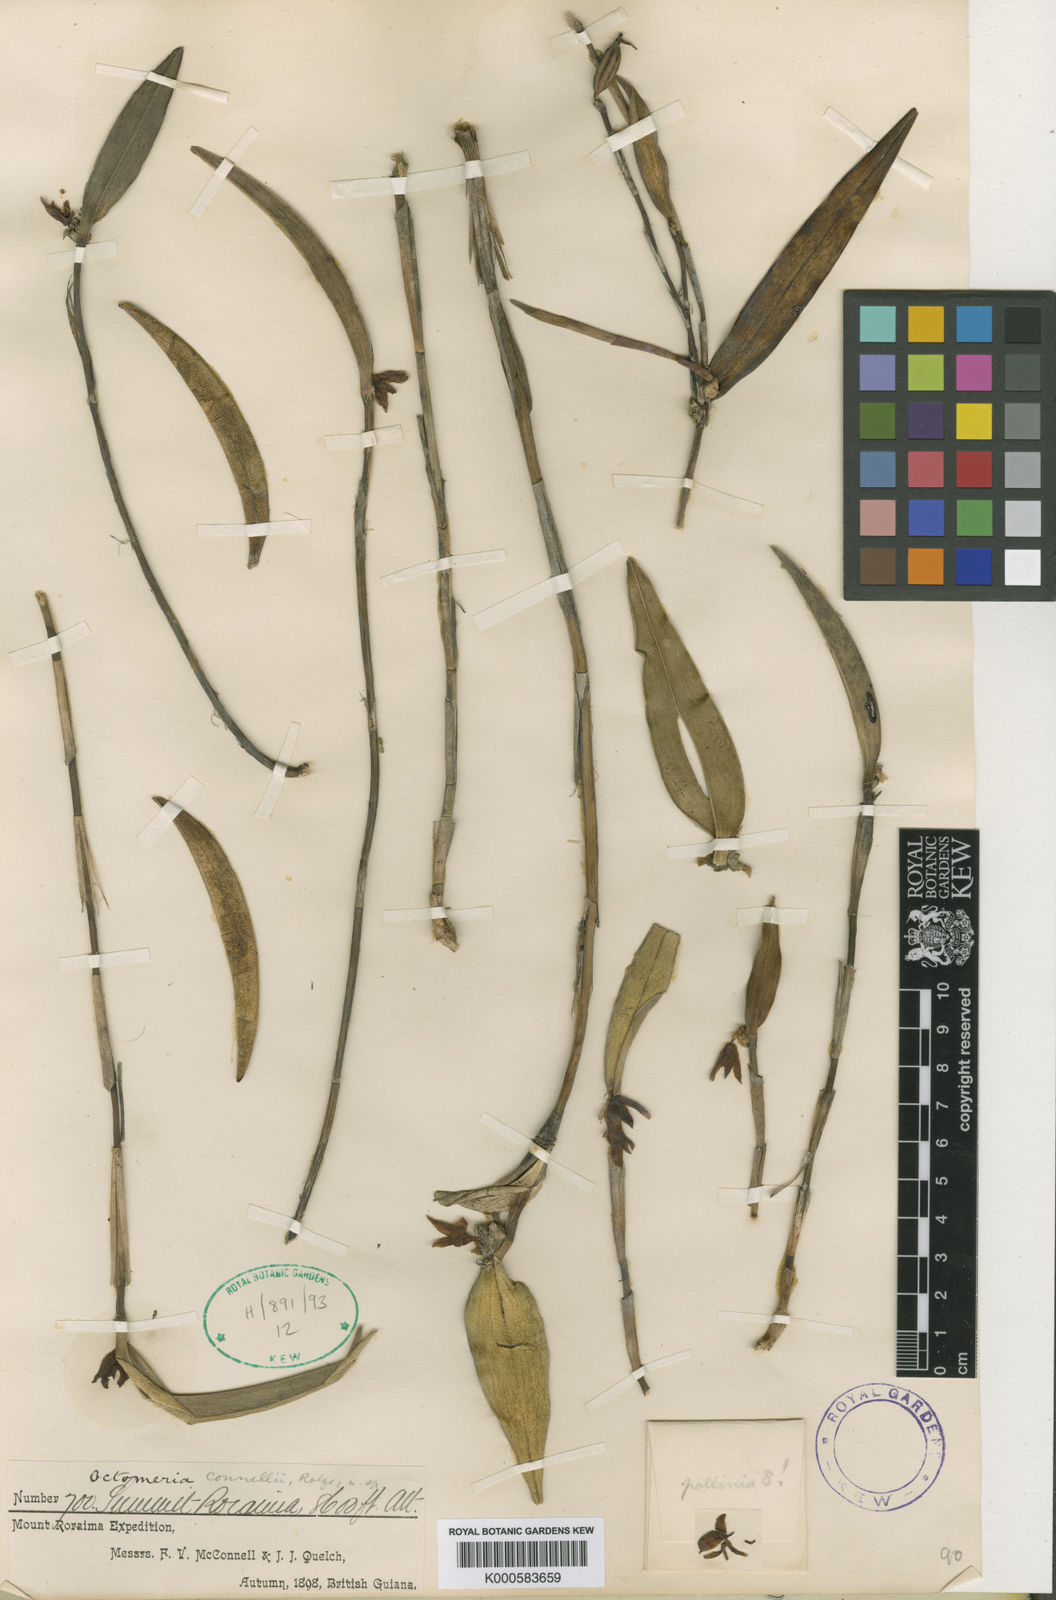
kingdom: Plantae
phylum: Tracheophyta
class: Liliopsida
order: Asparagales
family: Orchidaceae
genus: Octomeria
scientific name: Octomeria connellii
